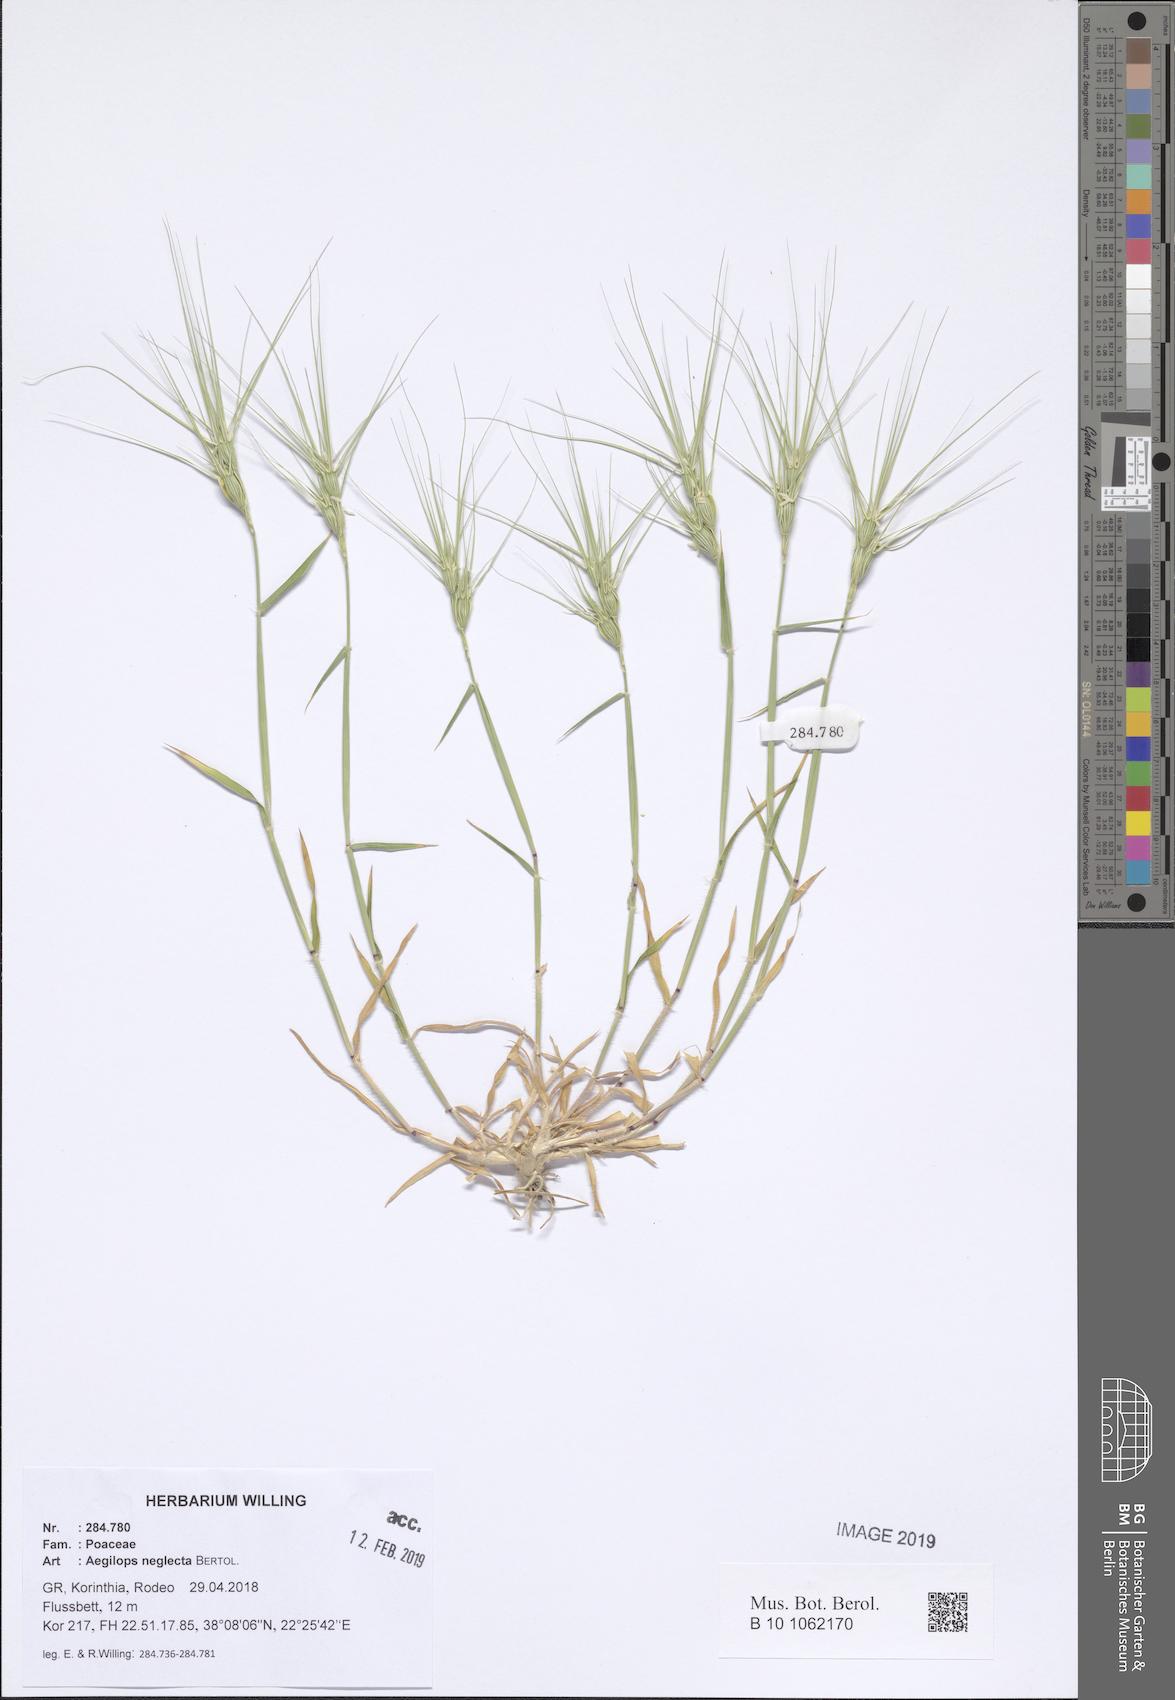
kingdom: Plantae
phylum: Tracheophyta
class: Liliopsida
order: Poales
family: Poaceae
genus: Aegilops
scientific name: Aegilops neglecta
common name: Three-awn goat grass
